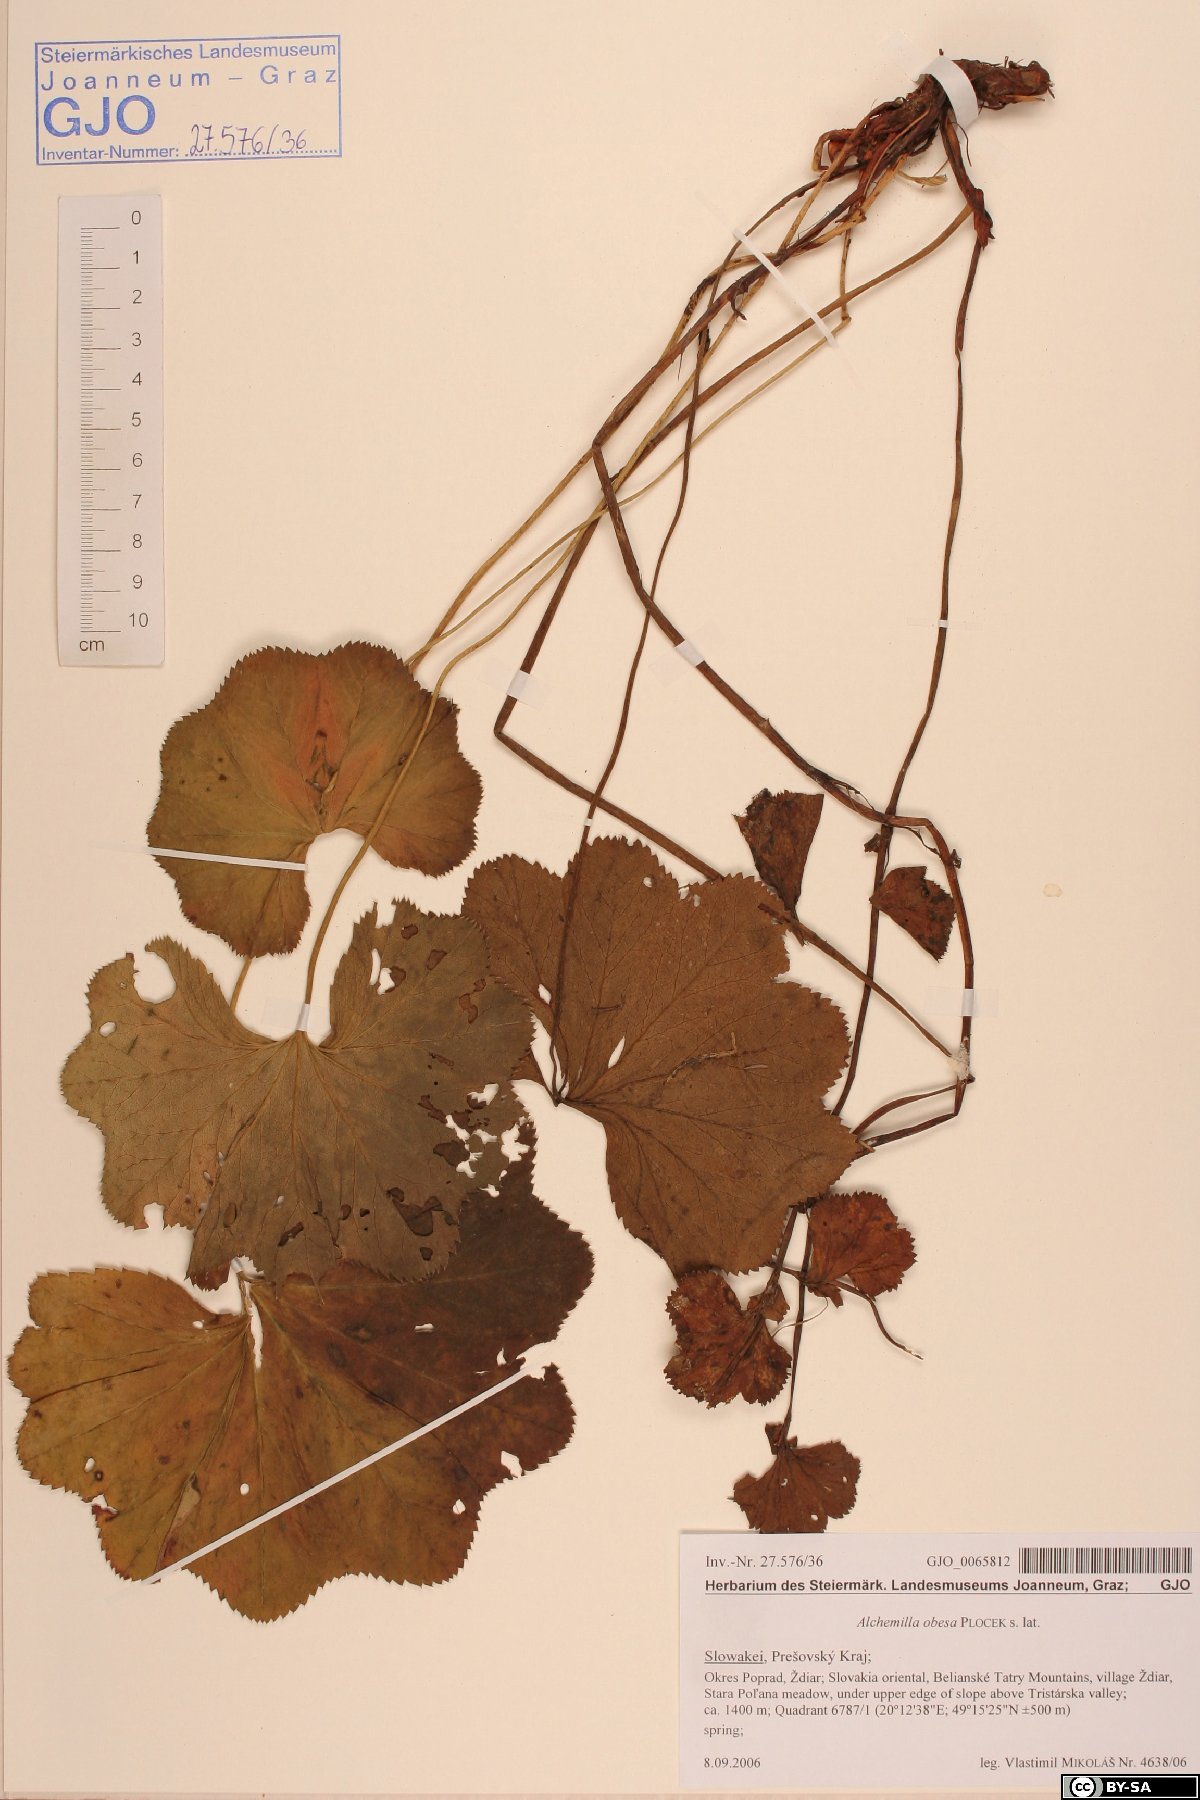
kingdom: Plantae
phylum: Tracheophyta
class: Magnoliopsida
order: Rosales
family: Rosaceae
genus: Alchemilla
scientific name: Alchemilla obesa
